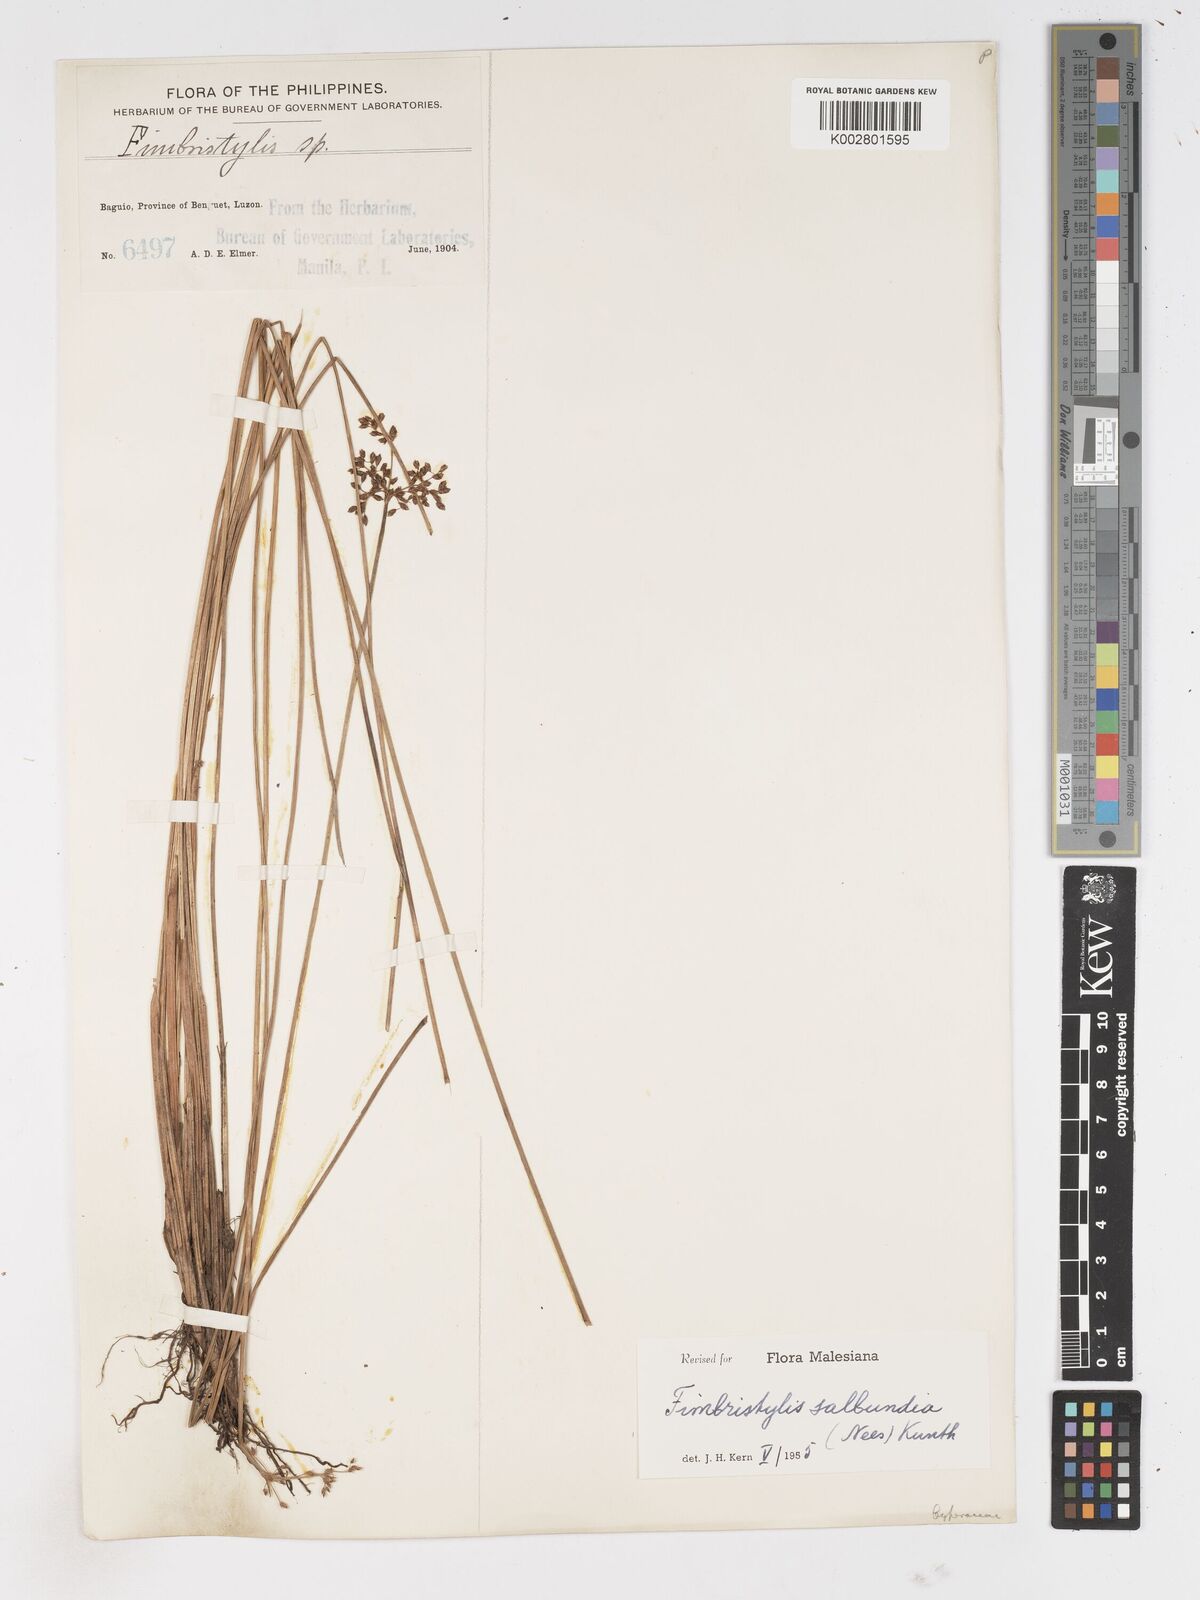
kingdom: Plantae
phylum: Tracheophyta
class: Liliopsida
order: Poales
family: Cyperaceae
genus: Fimbristylis
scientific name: Fimbristylis salbundia
